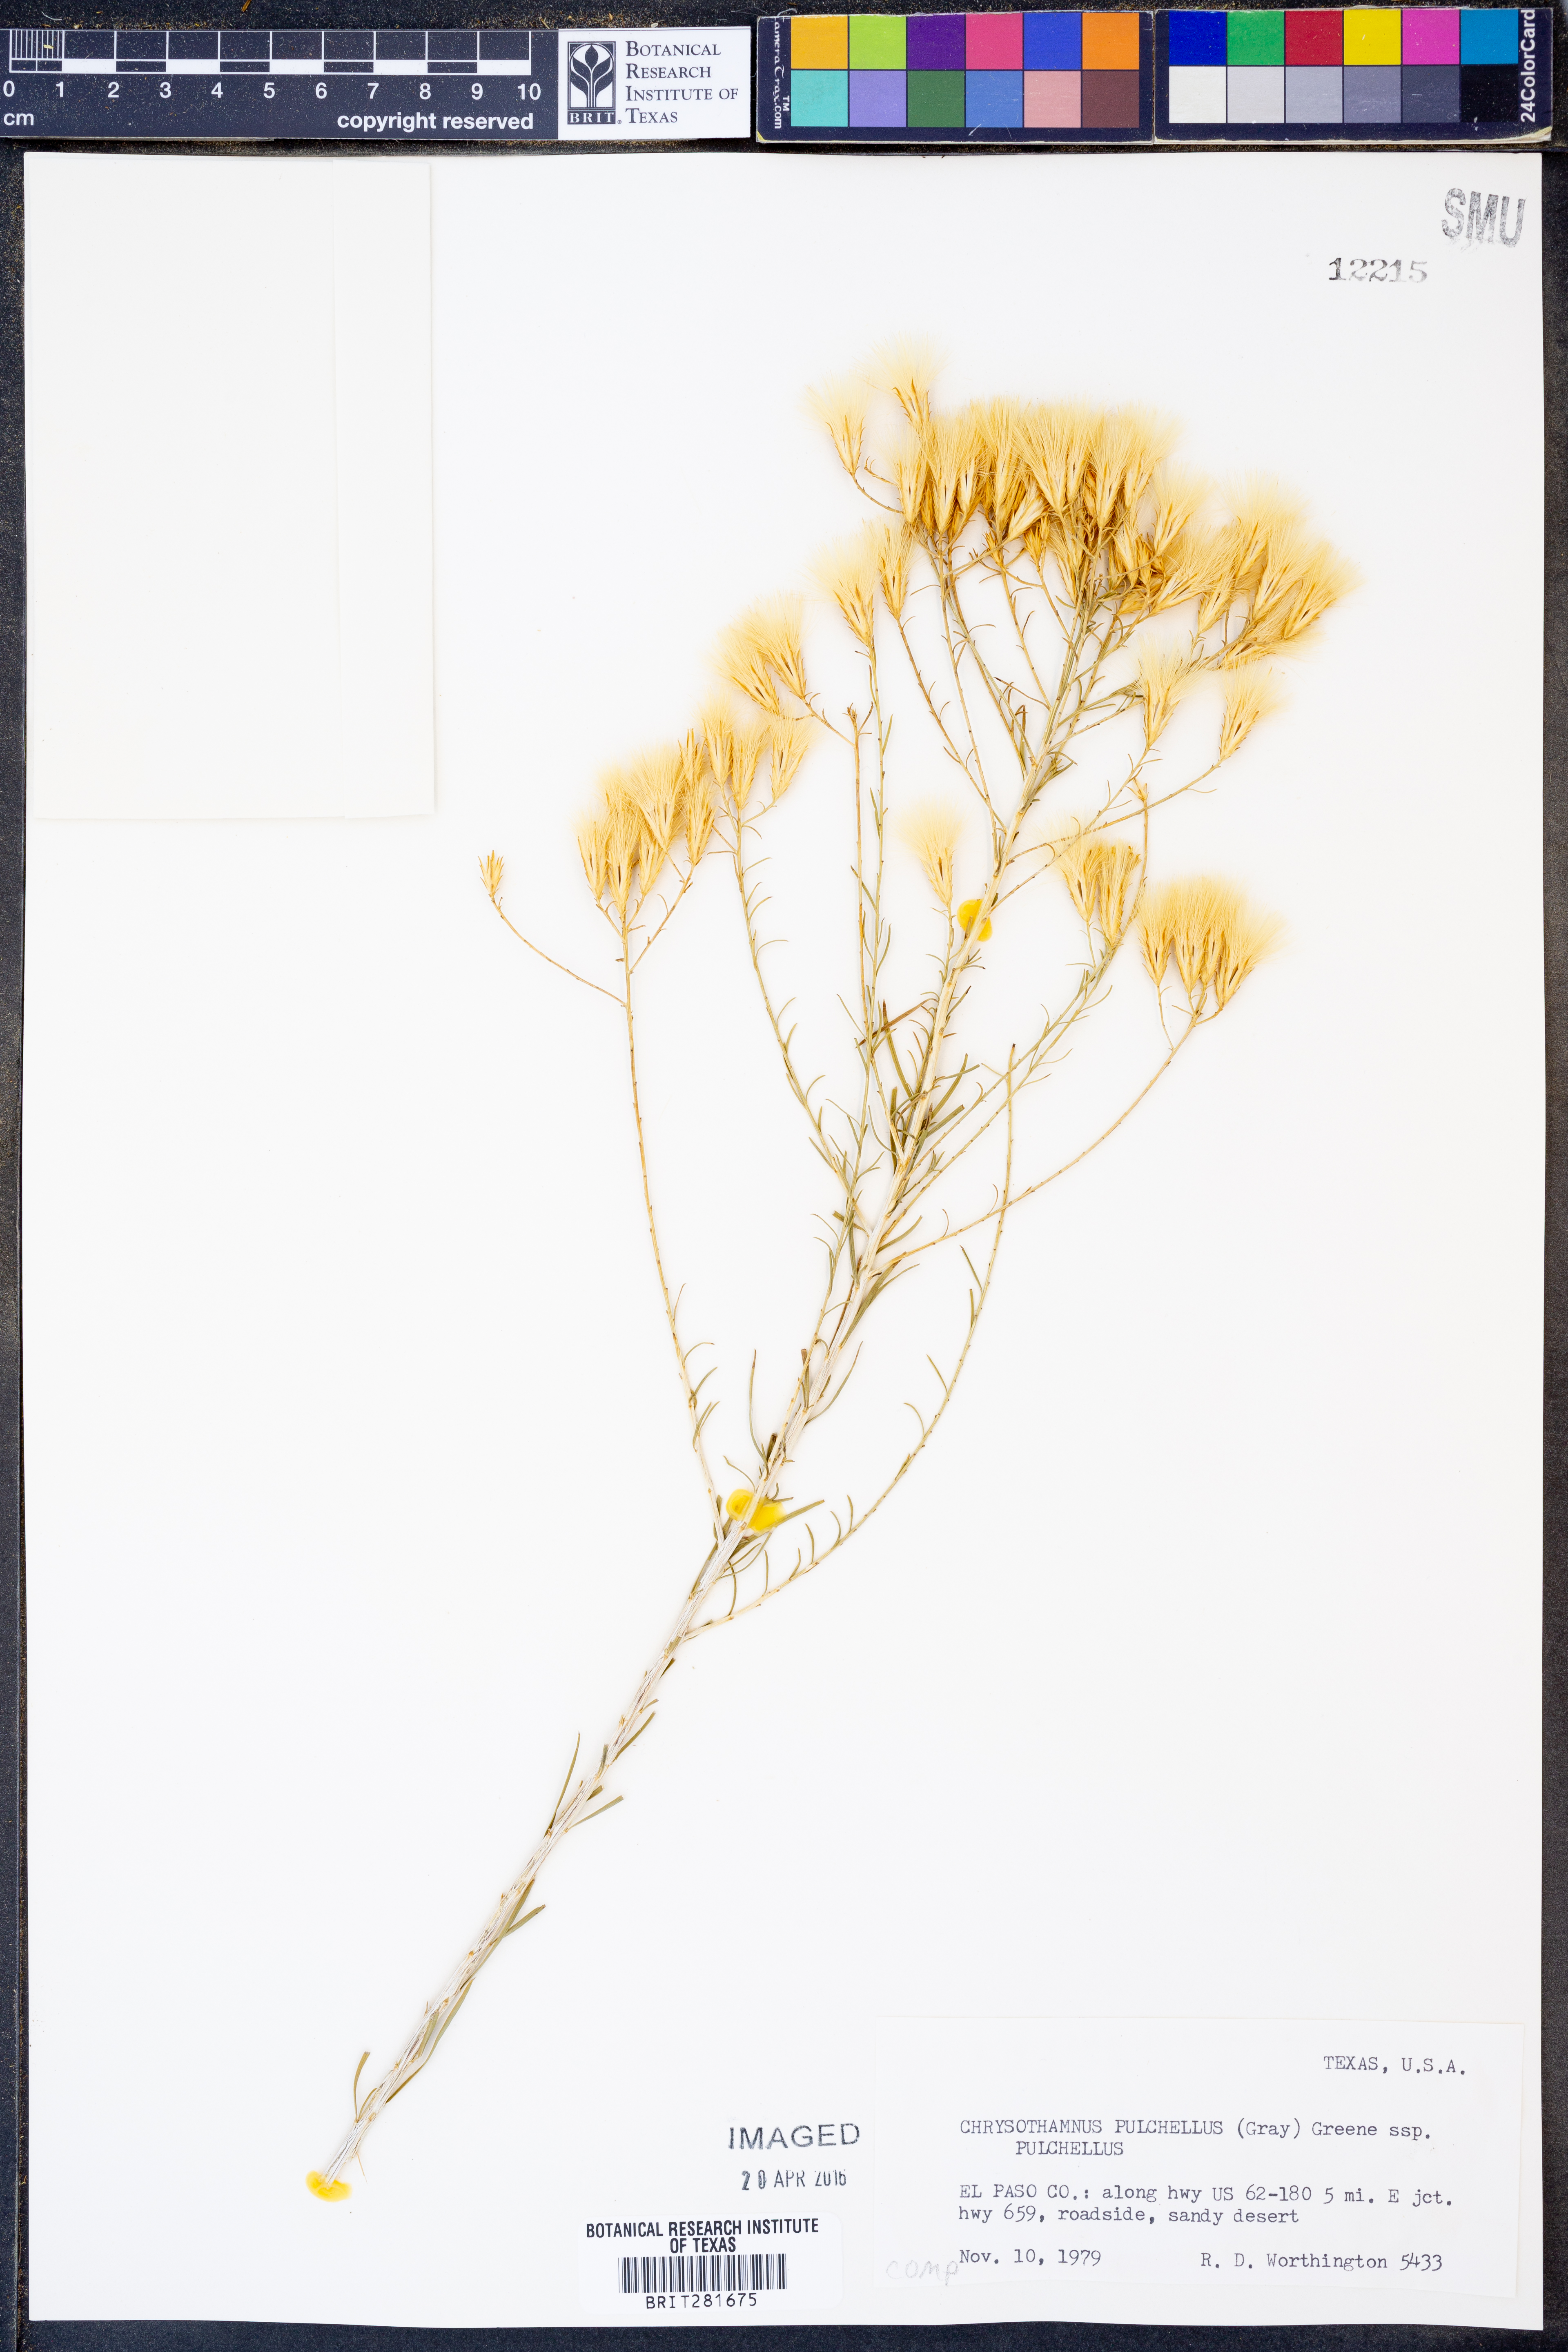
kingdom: Plantae
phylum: Tracheophyta
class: Magnoliopsida
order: Asterales
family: Asteraceae
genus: Lorandersonia
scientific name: Lorandersonia pulchella
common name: Southwestern rabbitbrush
